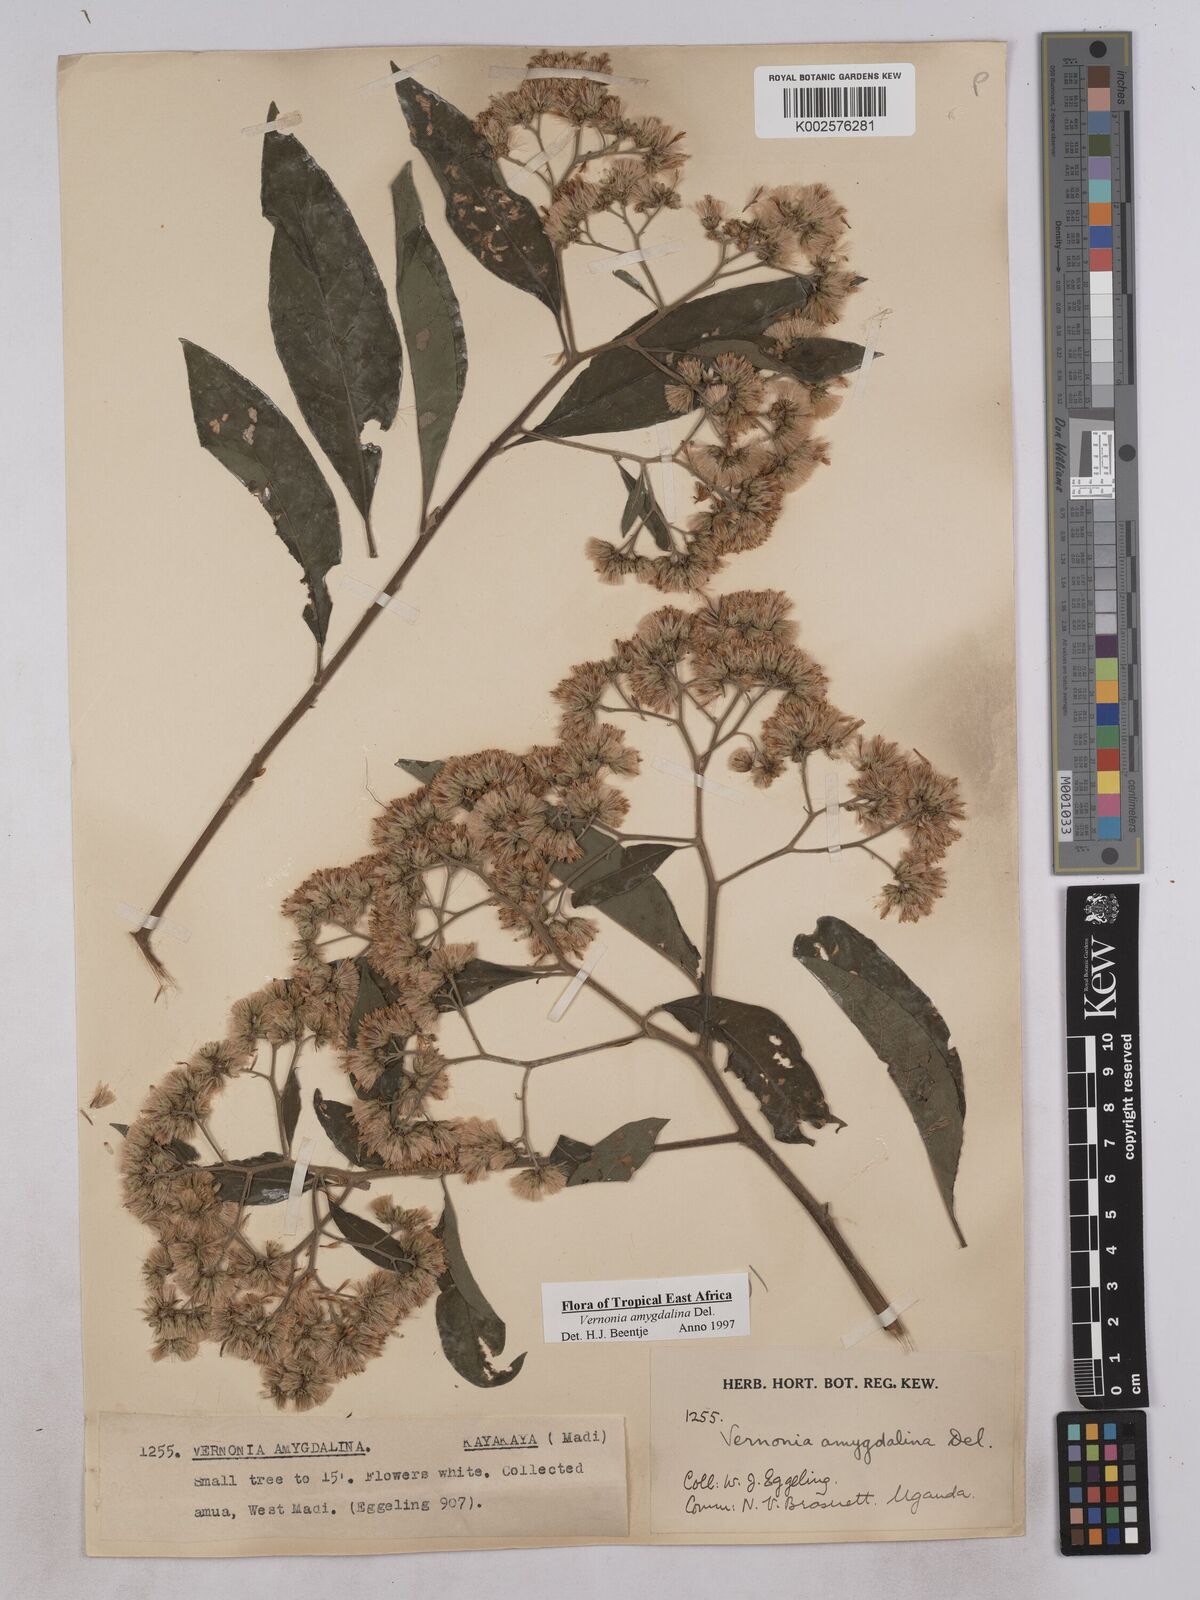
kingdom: Plantae
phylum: Tracheophyta
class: Magnoliopsida
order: Asterales
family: Asteraceae
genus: Gymnanthemum
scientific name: Gymnanthemum amygdalinum
